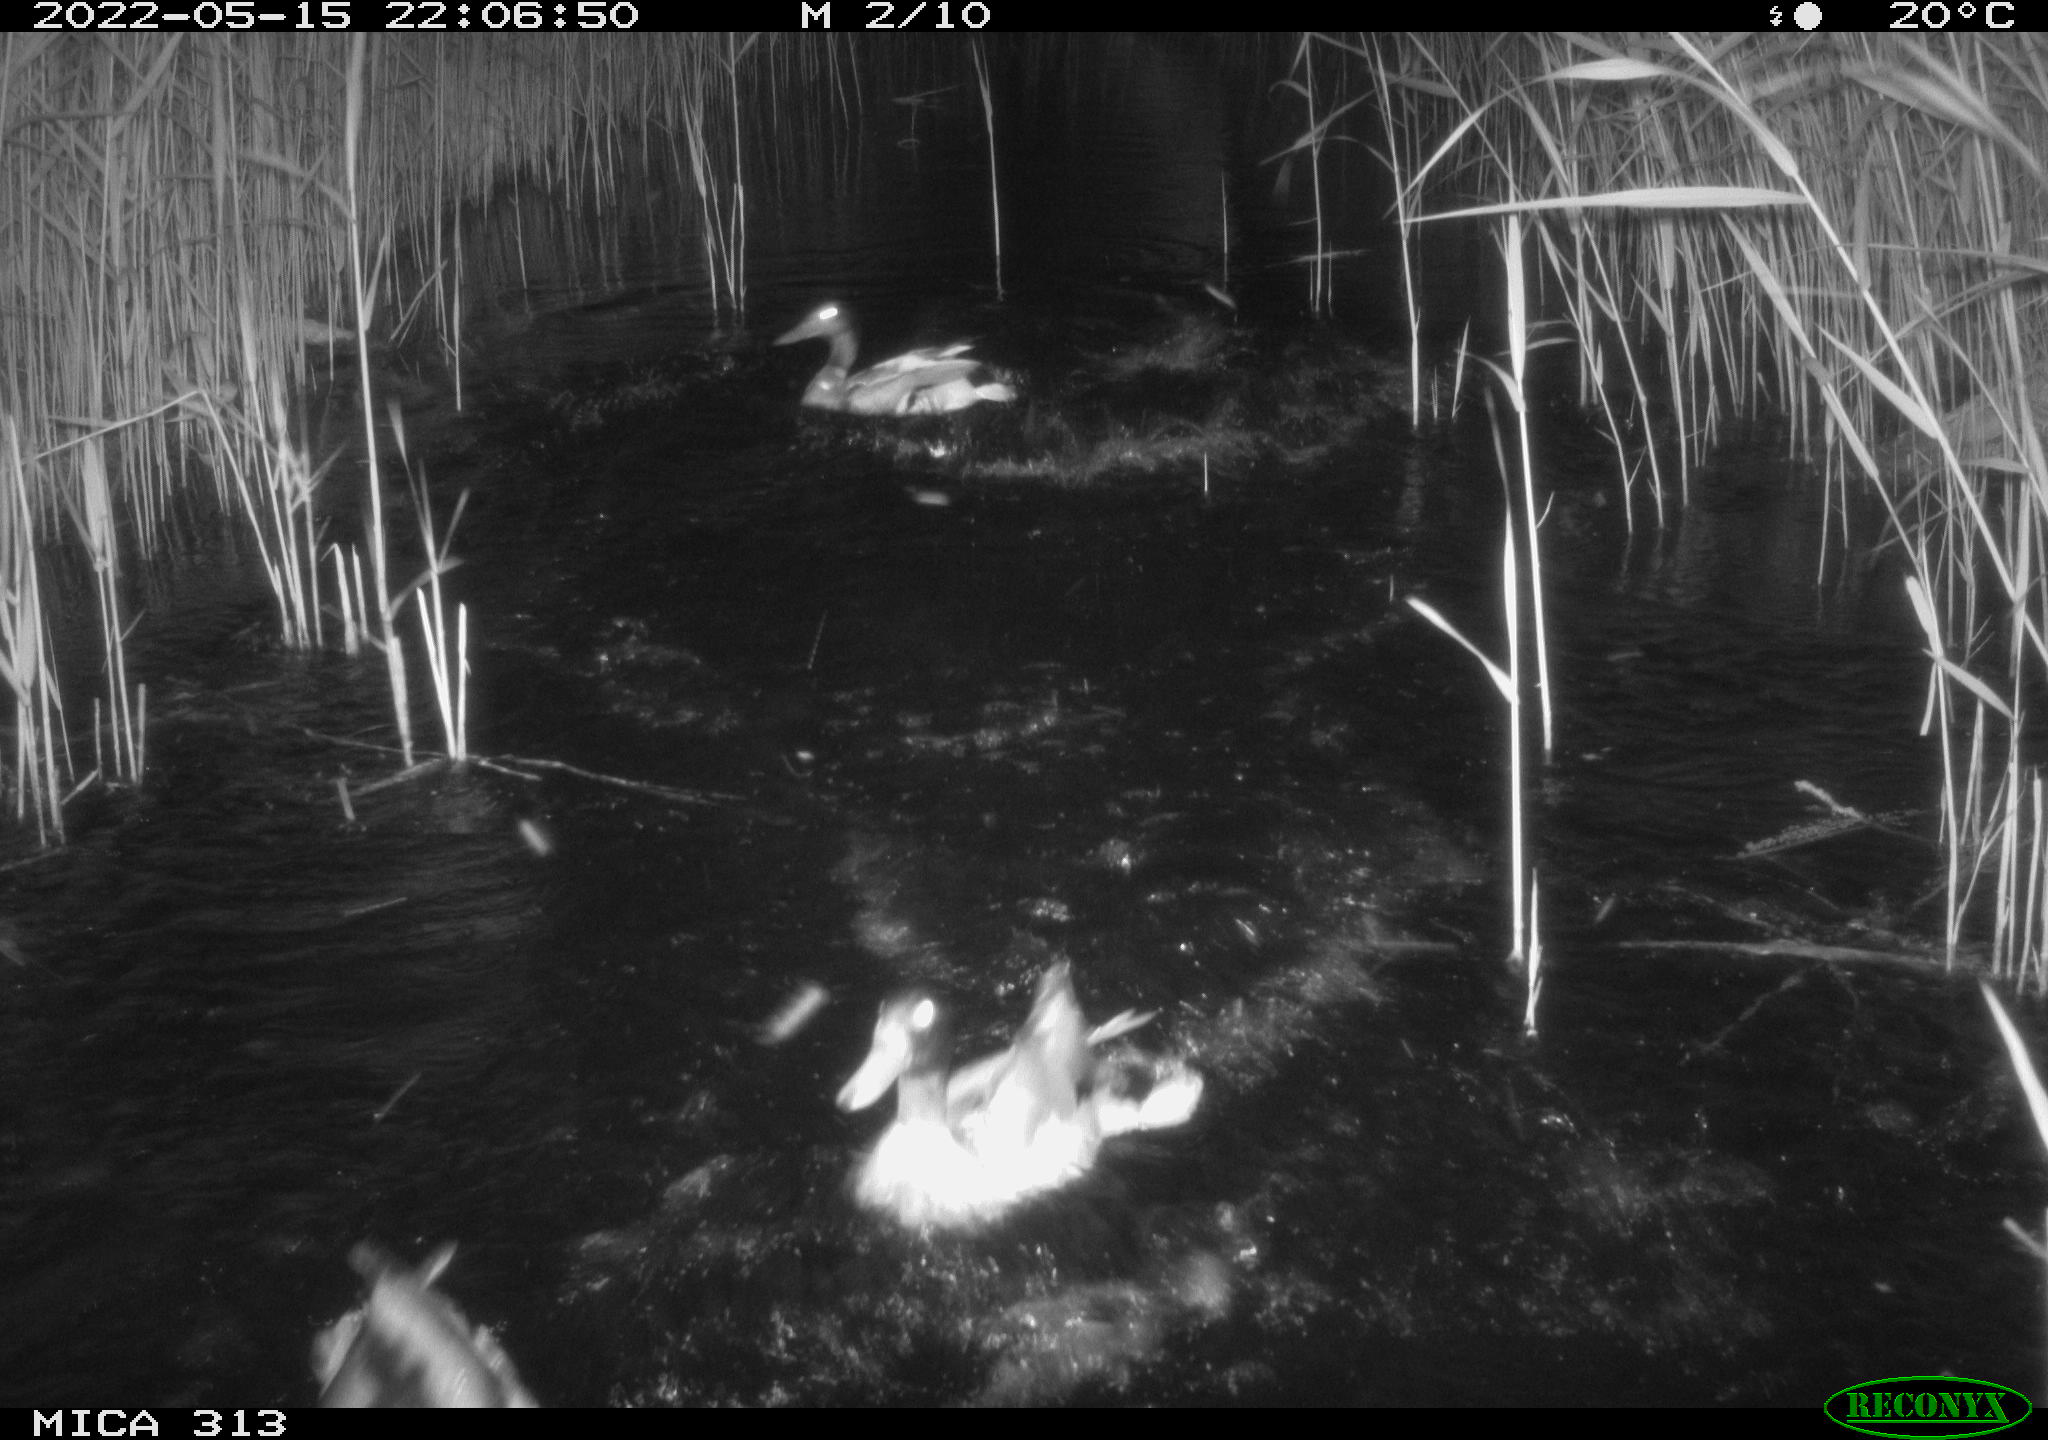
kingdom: Animalia
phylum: Chordata
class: Aves
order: Anseriformes
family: Anatidae
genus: Anas
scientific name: Anas platyrhynchos
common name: Mallard
